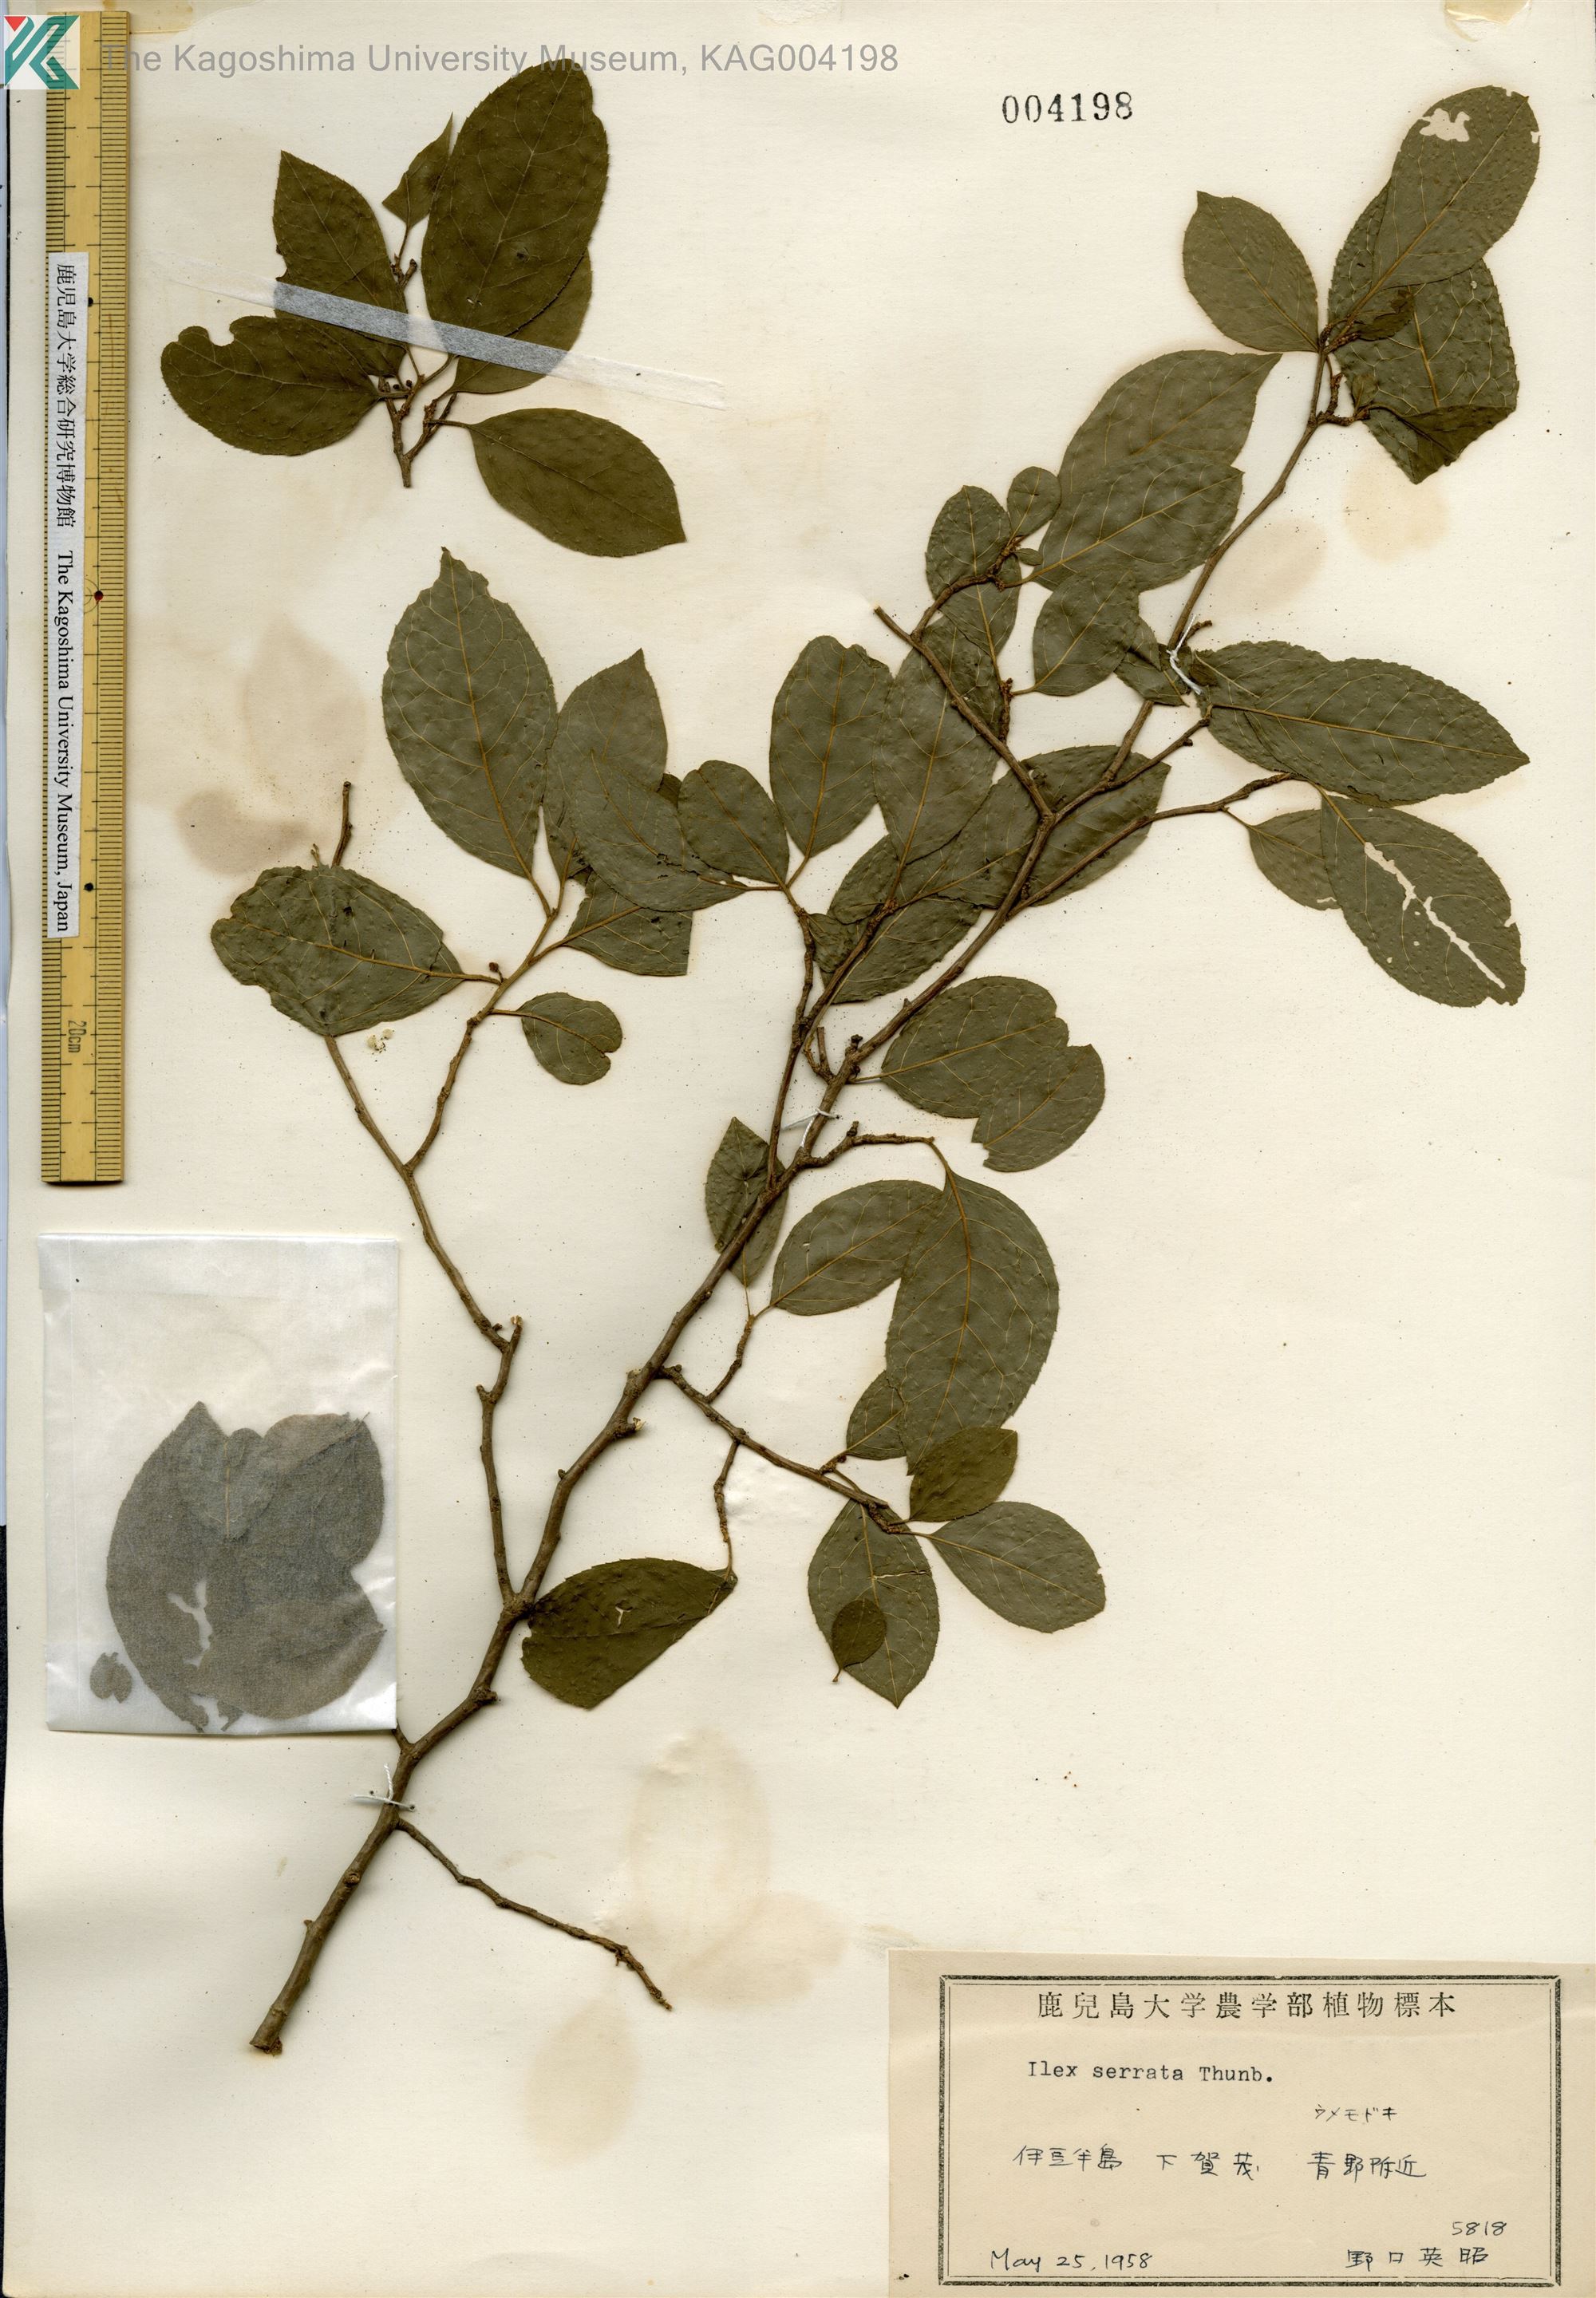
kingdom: Plantae
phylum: Tracheophyta
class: Magnoliopsida
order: Aquifoliales
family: Aquifoliaceae
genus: Ilex
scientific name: Ilex serrata
